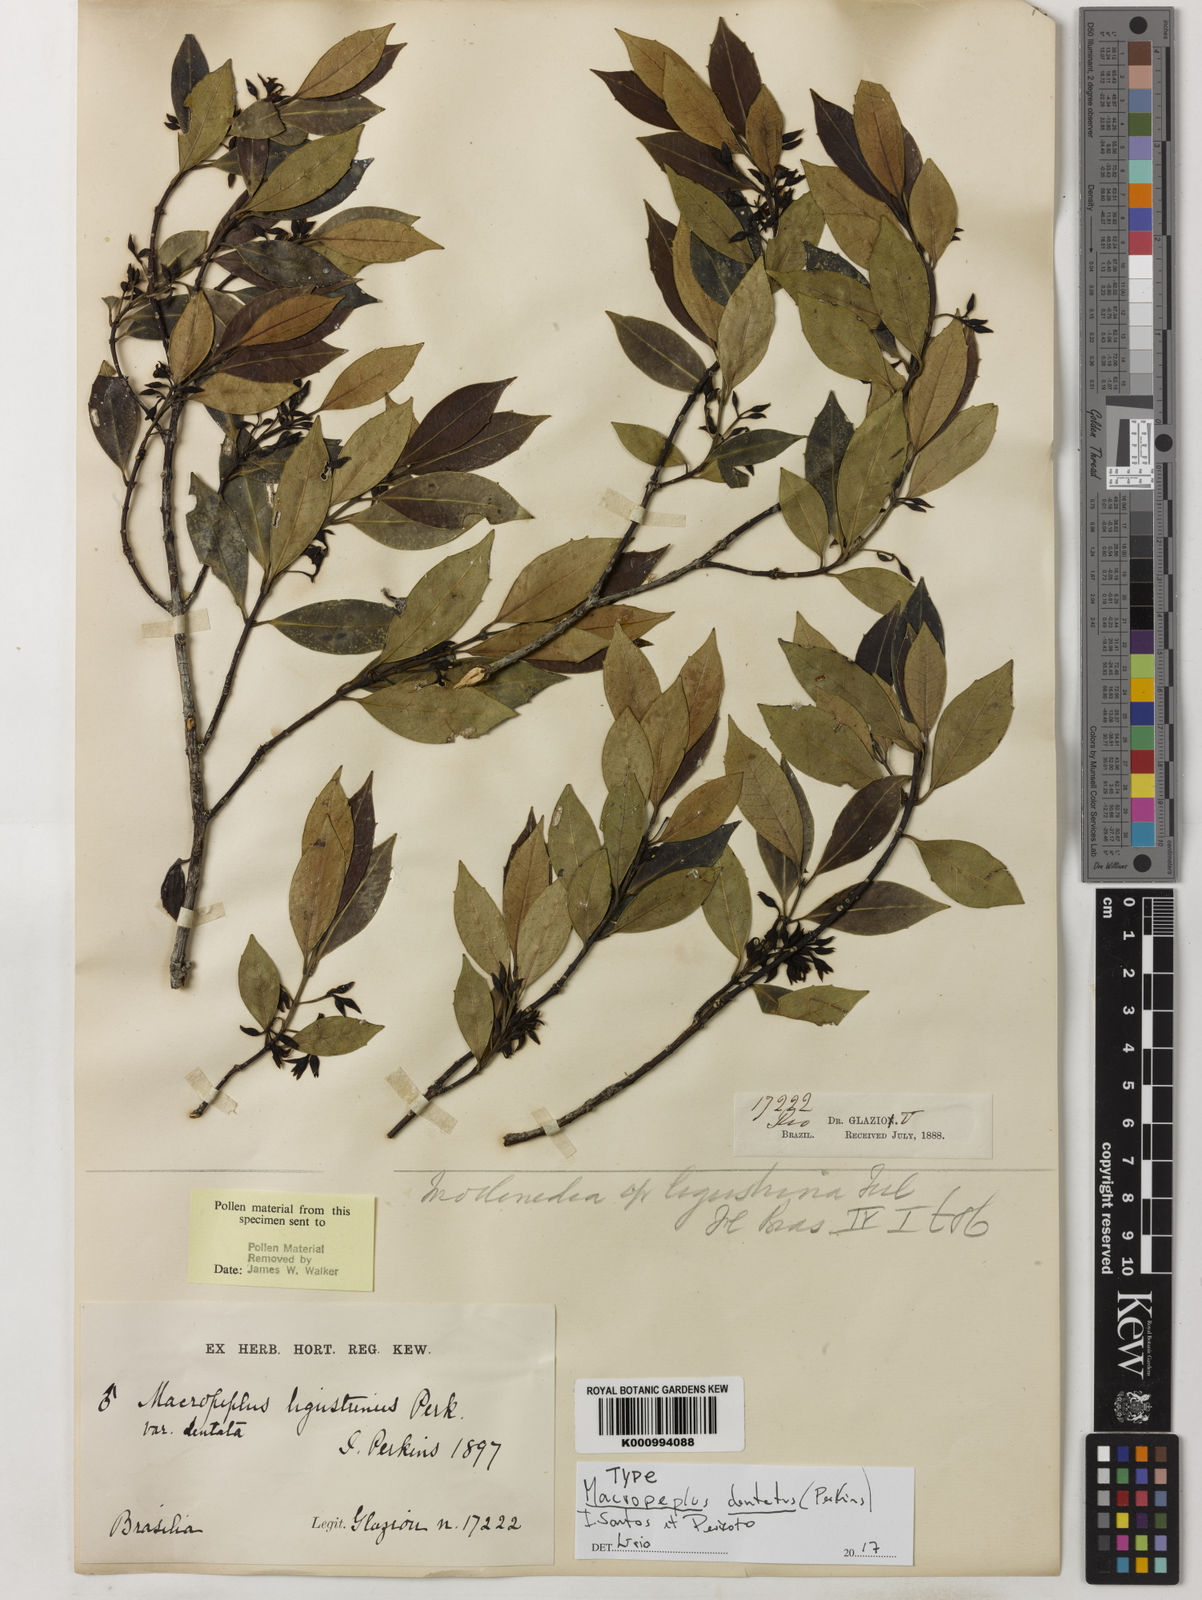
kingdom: Plantae
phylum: Tracheophyta
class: Magnoliopsida
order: Laurales
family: Monimiaceae
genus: Macropeplus
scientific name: Macropeplus dentatus
